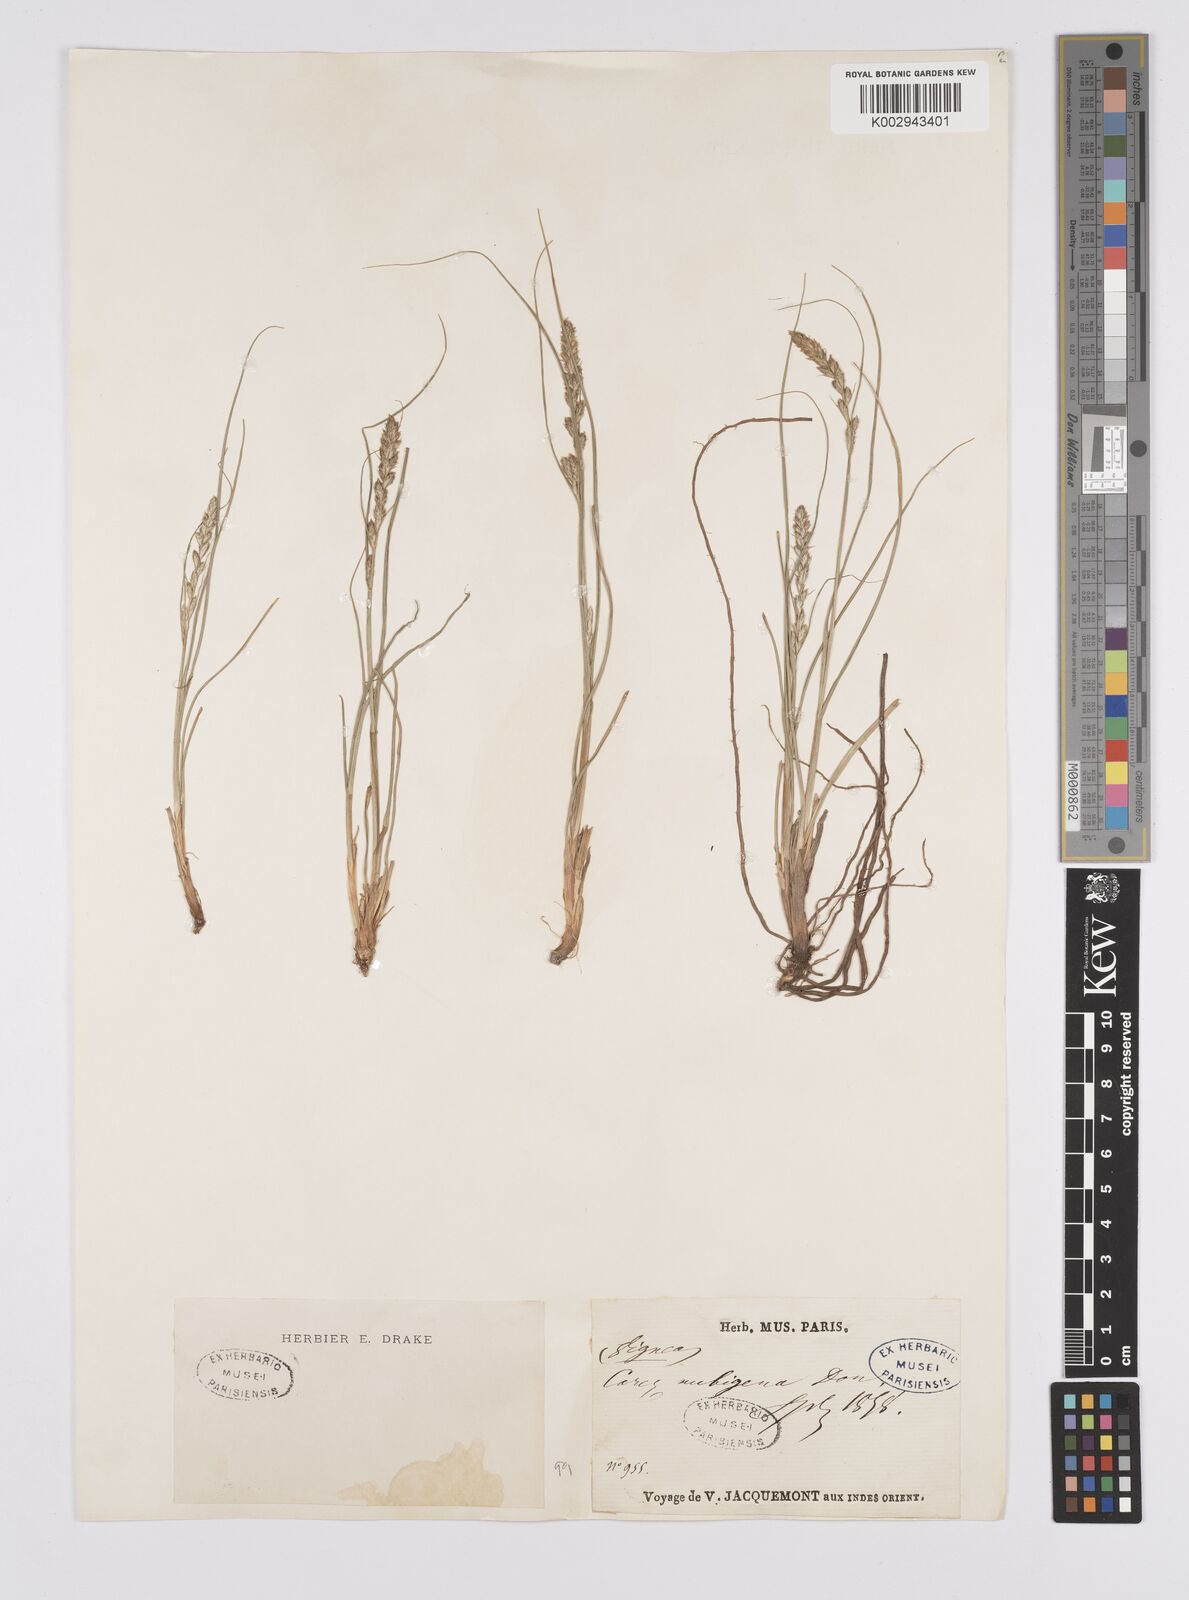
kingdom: Plantae
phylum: Tracheophyta
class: Liliopsida
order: Poales
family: Cyperaceae
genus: Carex
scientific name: Carex nubigena
